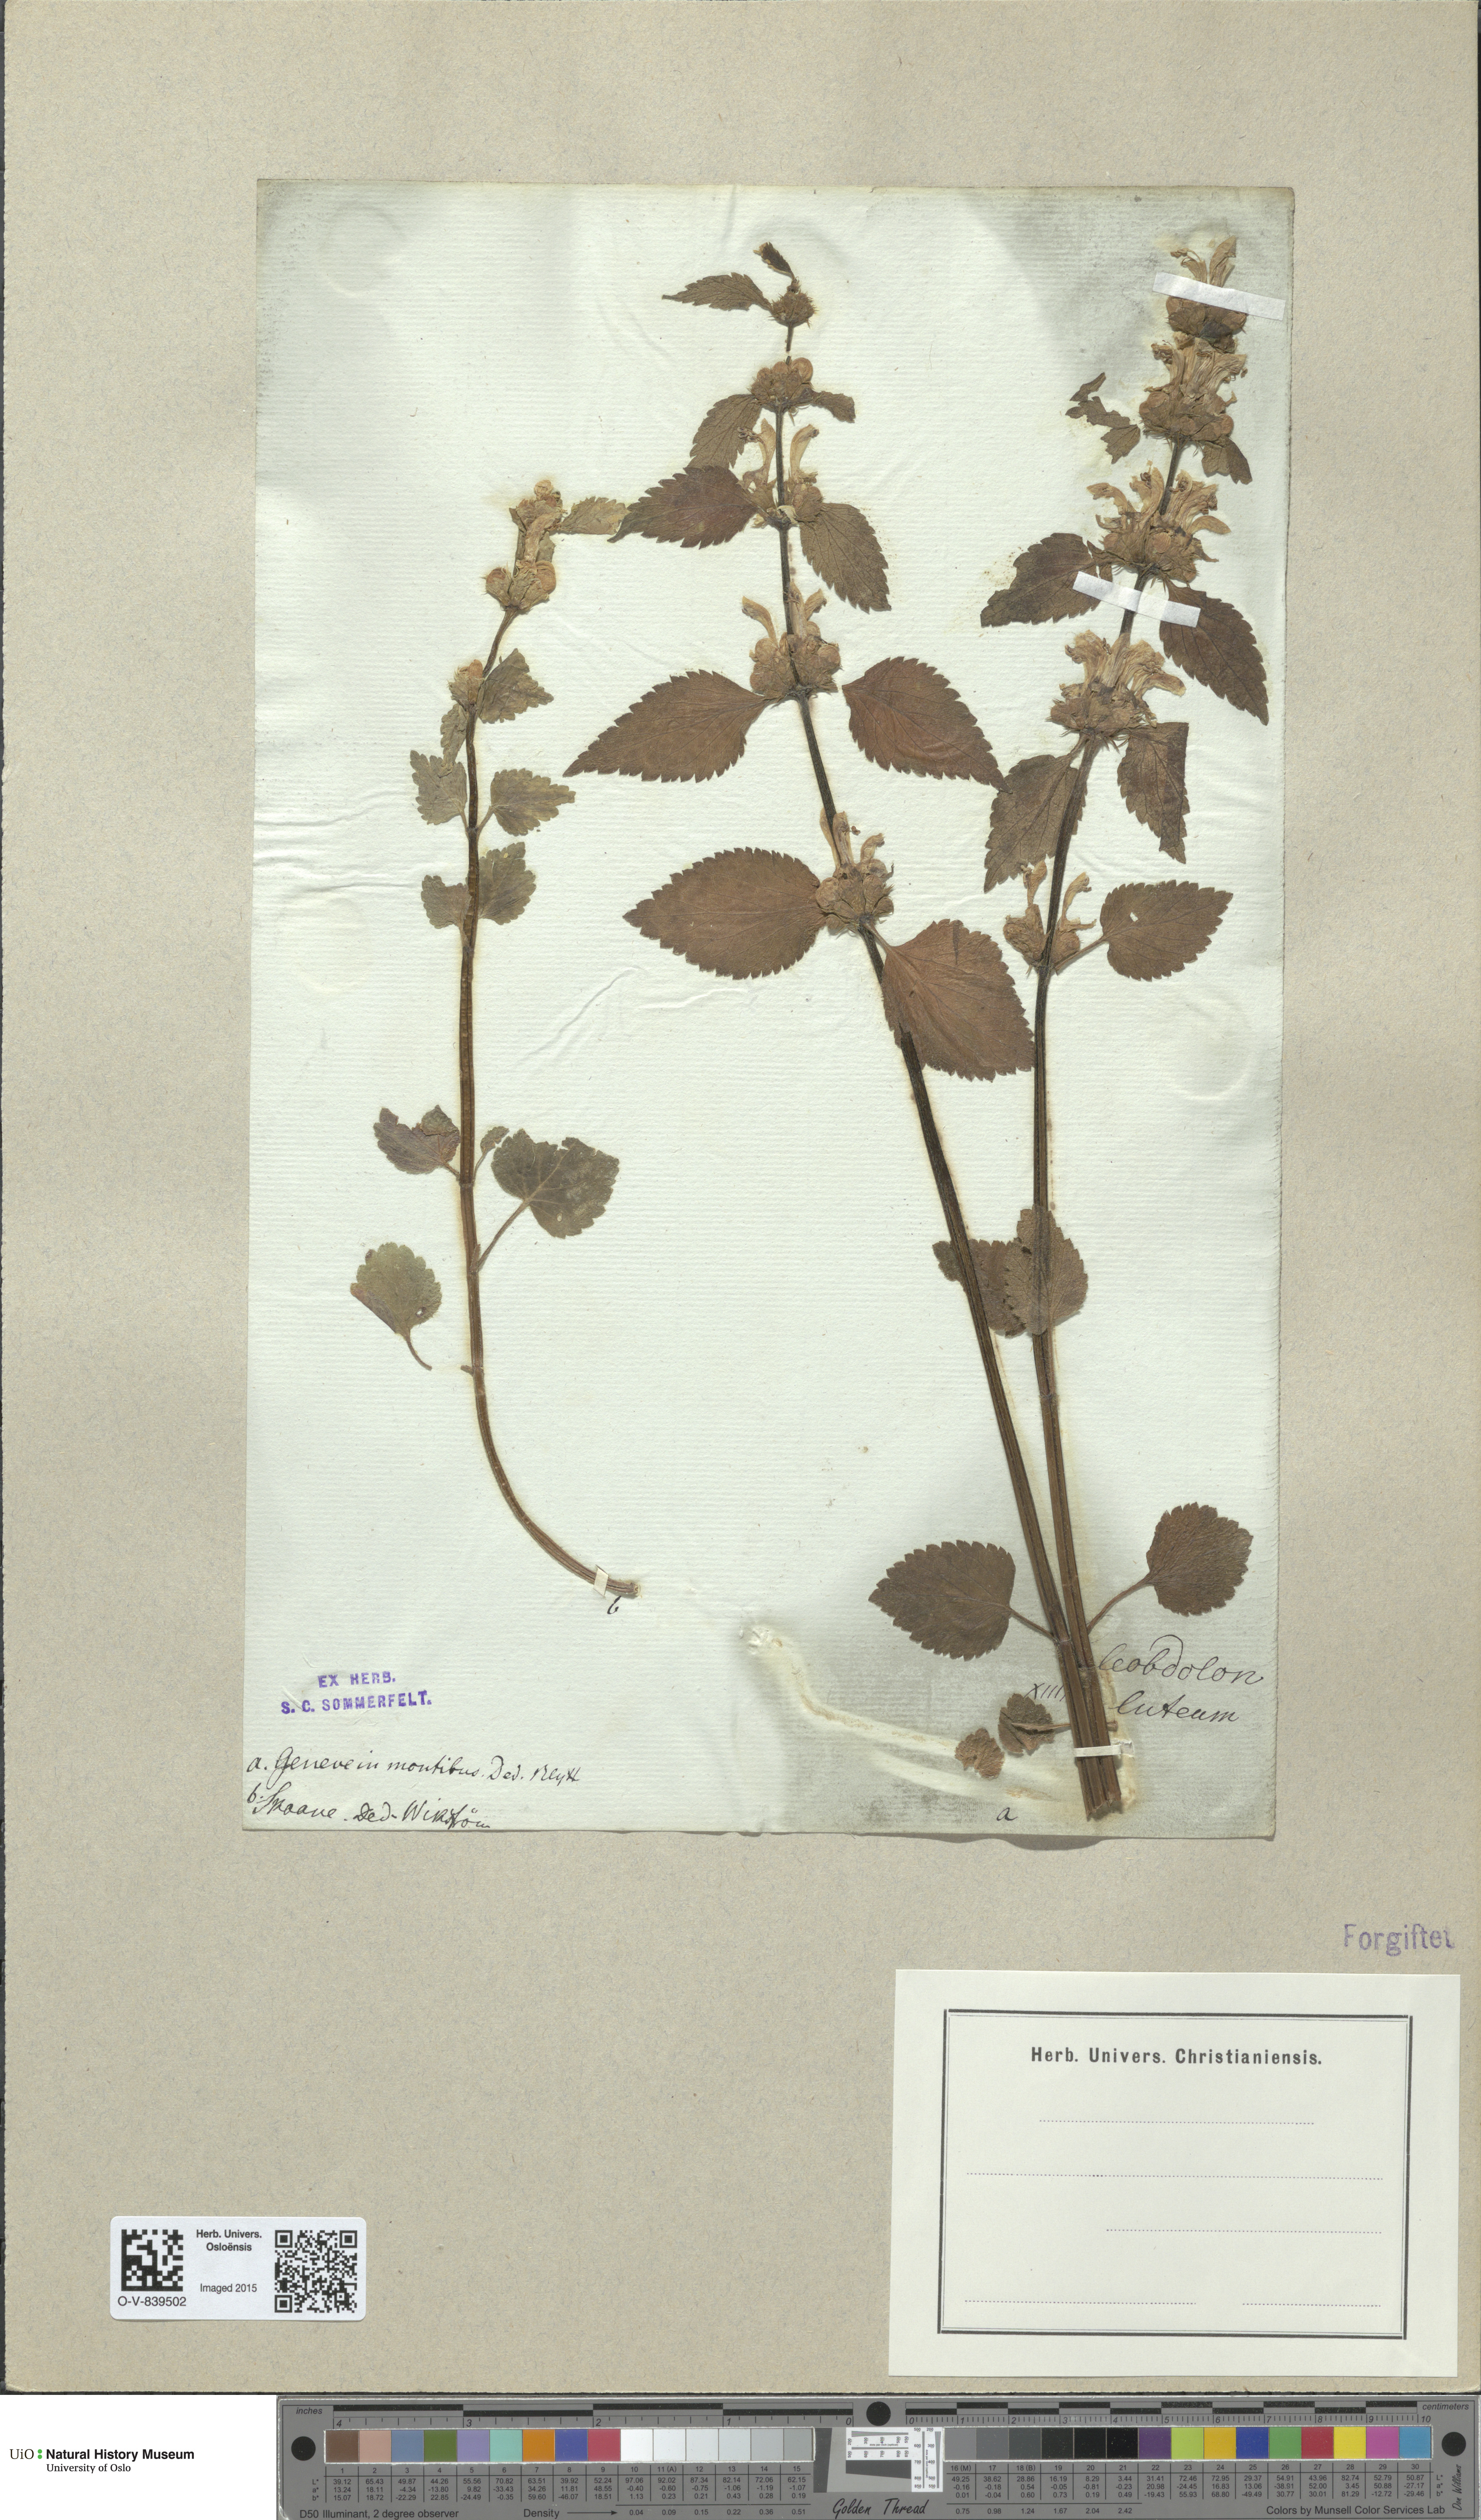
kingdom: Plantae
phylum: Tracheophyta
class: Magnoliopsida
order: Lamiales
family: Lamiaceae
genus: Lamium
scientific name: Lamium galeobdolon
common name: Yellow archangel
